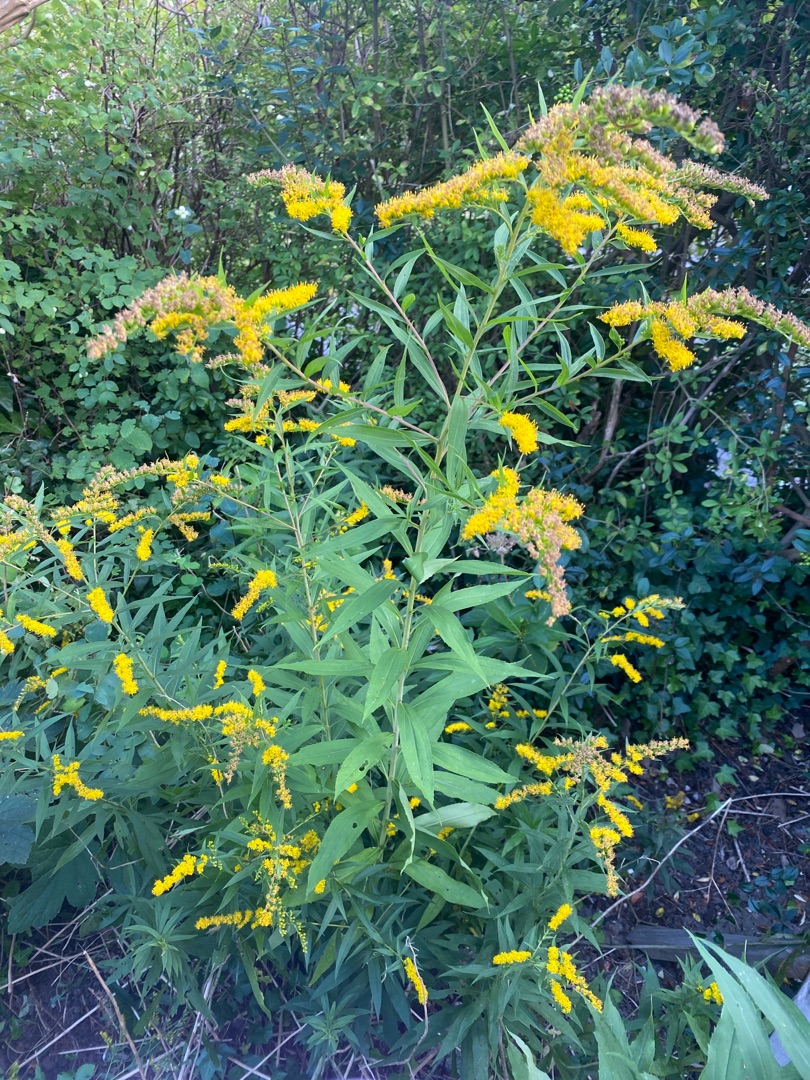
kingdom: Plantae
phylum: Tracheophyta
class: Magnoliopsida
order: Asterales
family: Asteraceae
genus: Solidago
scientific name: Solidago gigantea
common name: Sildig gyldenris
